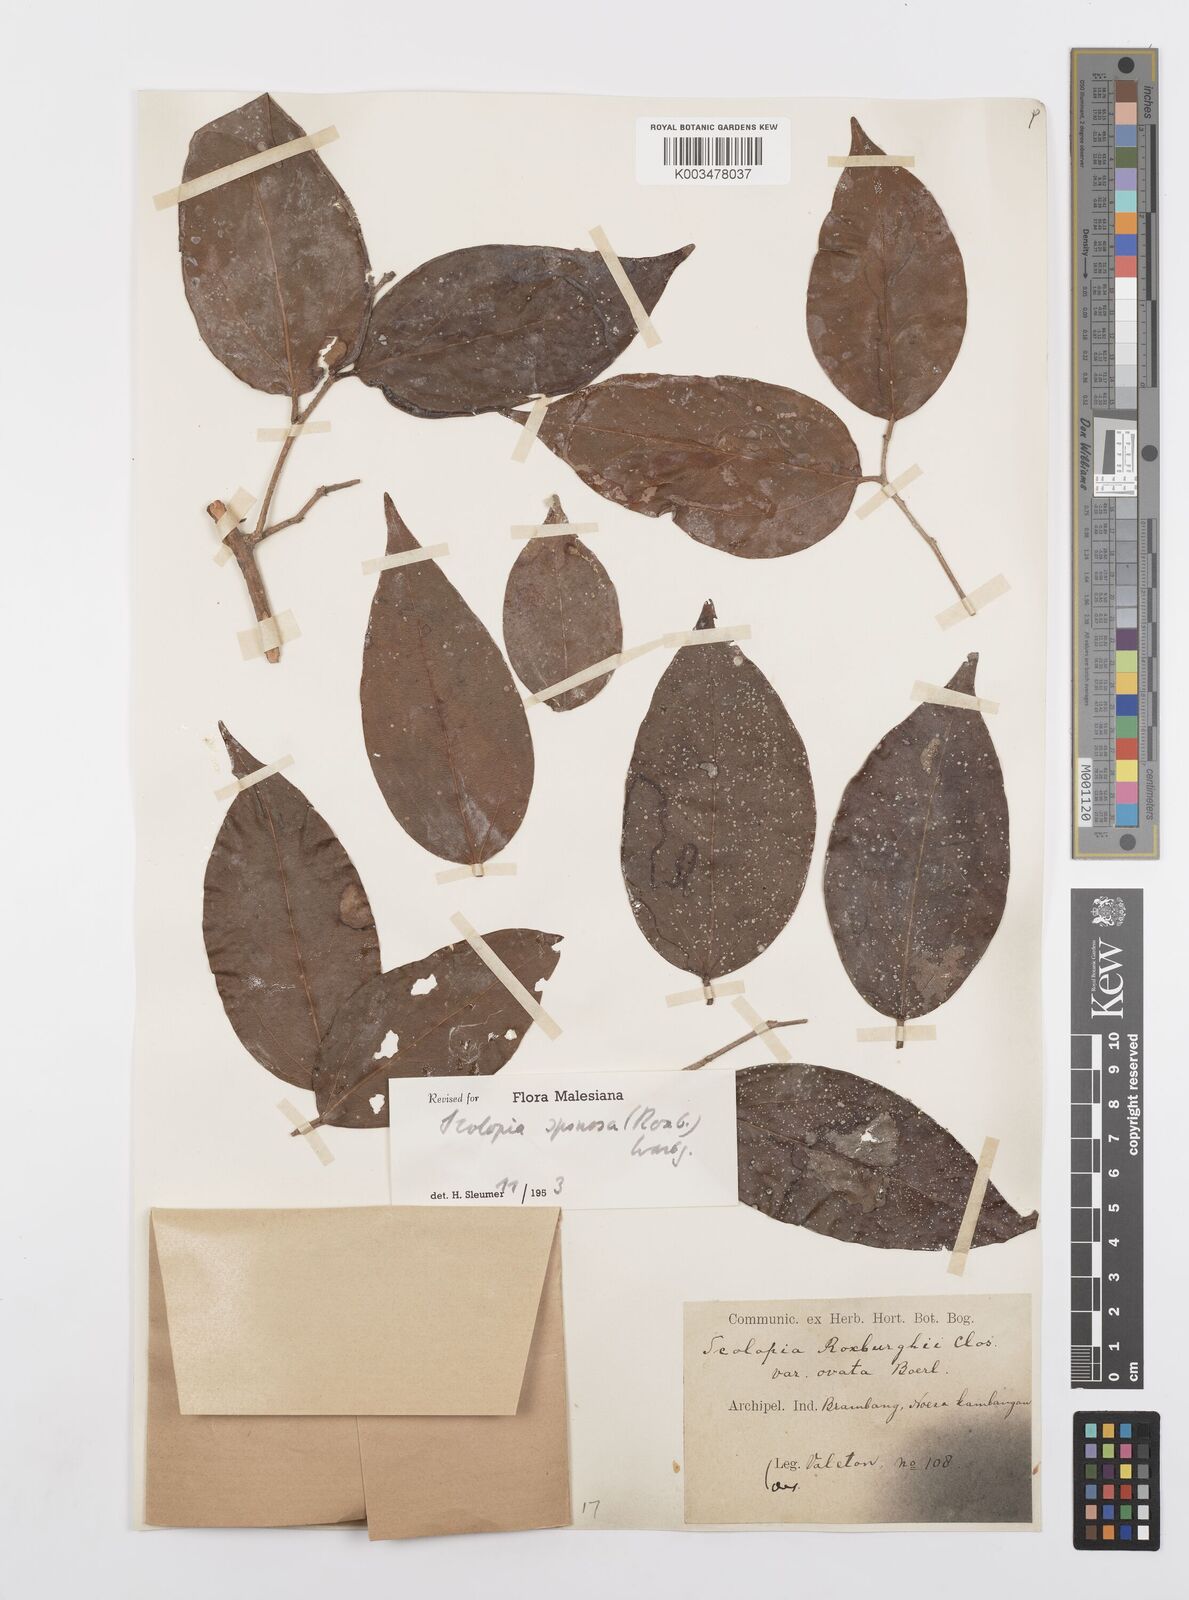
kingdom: Plantae
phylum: Tracheophyta
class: Magnoliopsida
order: Malpighiales
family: Salicaceae
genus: Scolopia
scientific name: Scolopia spinosa
